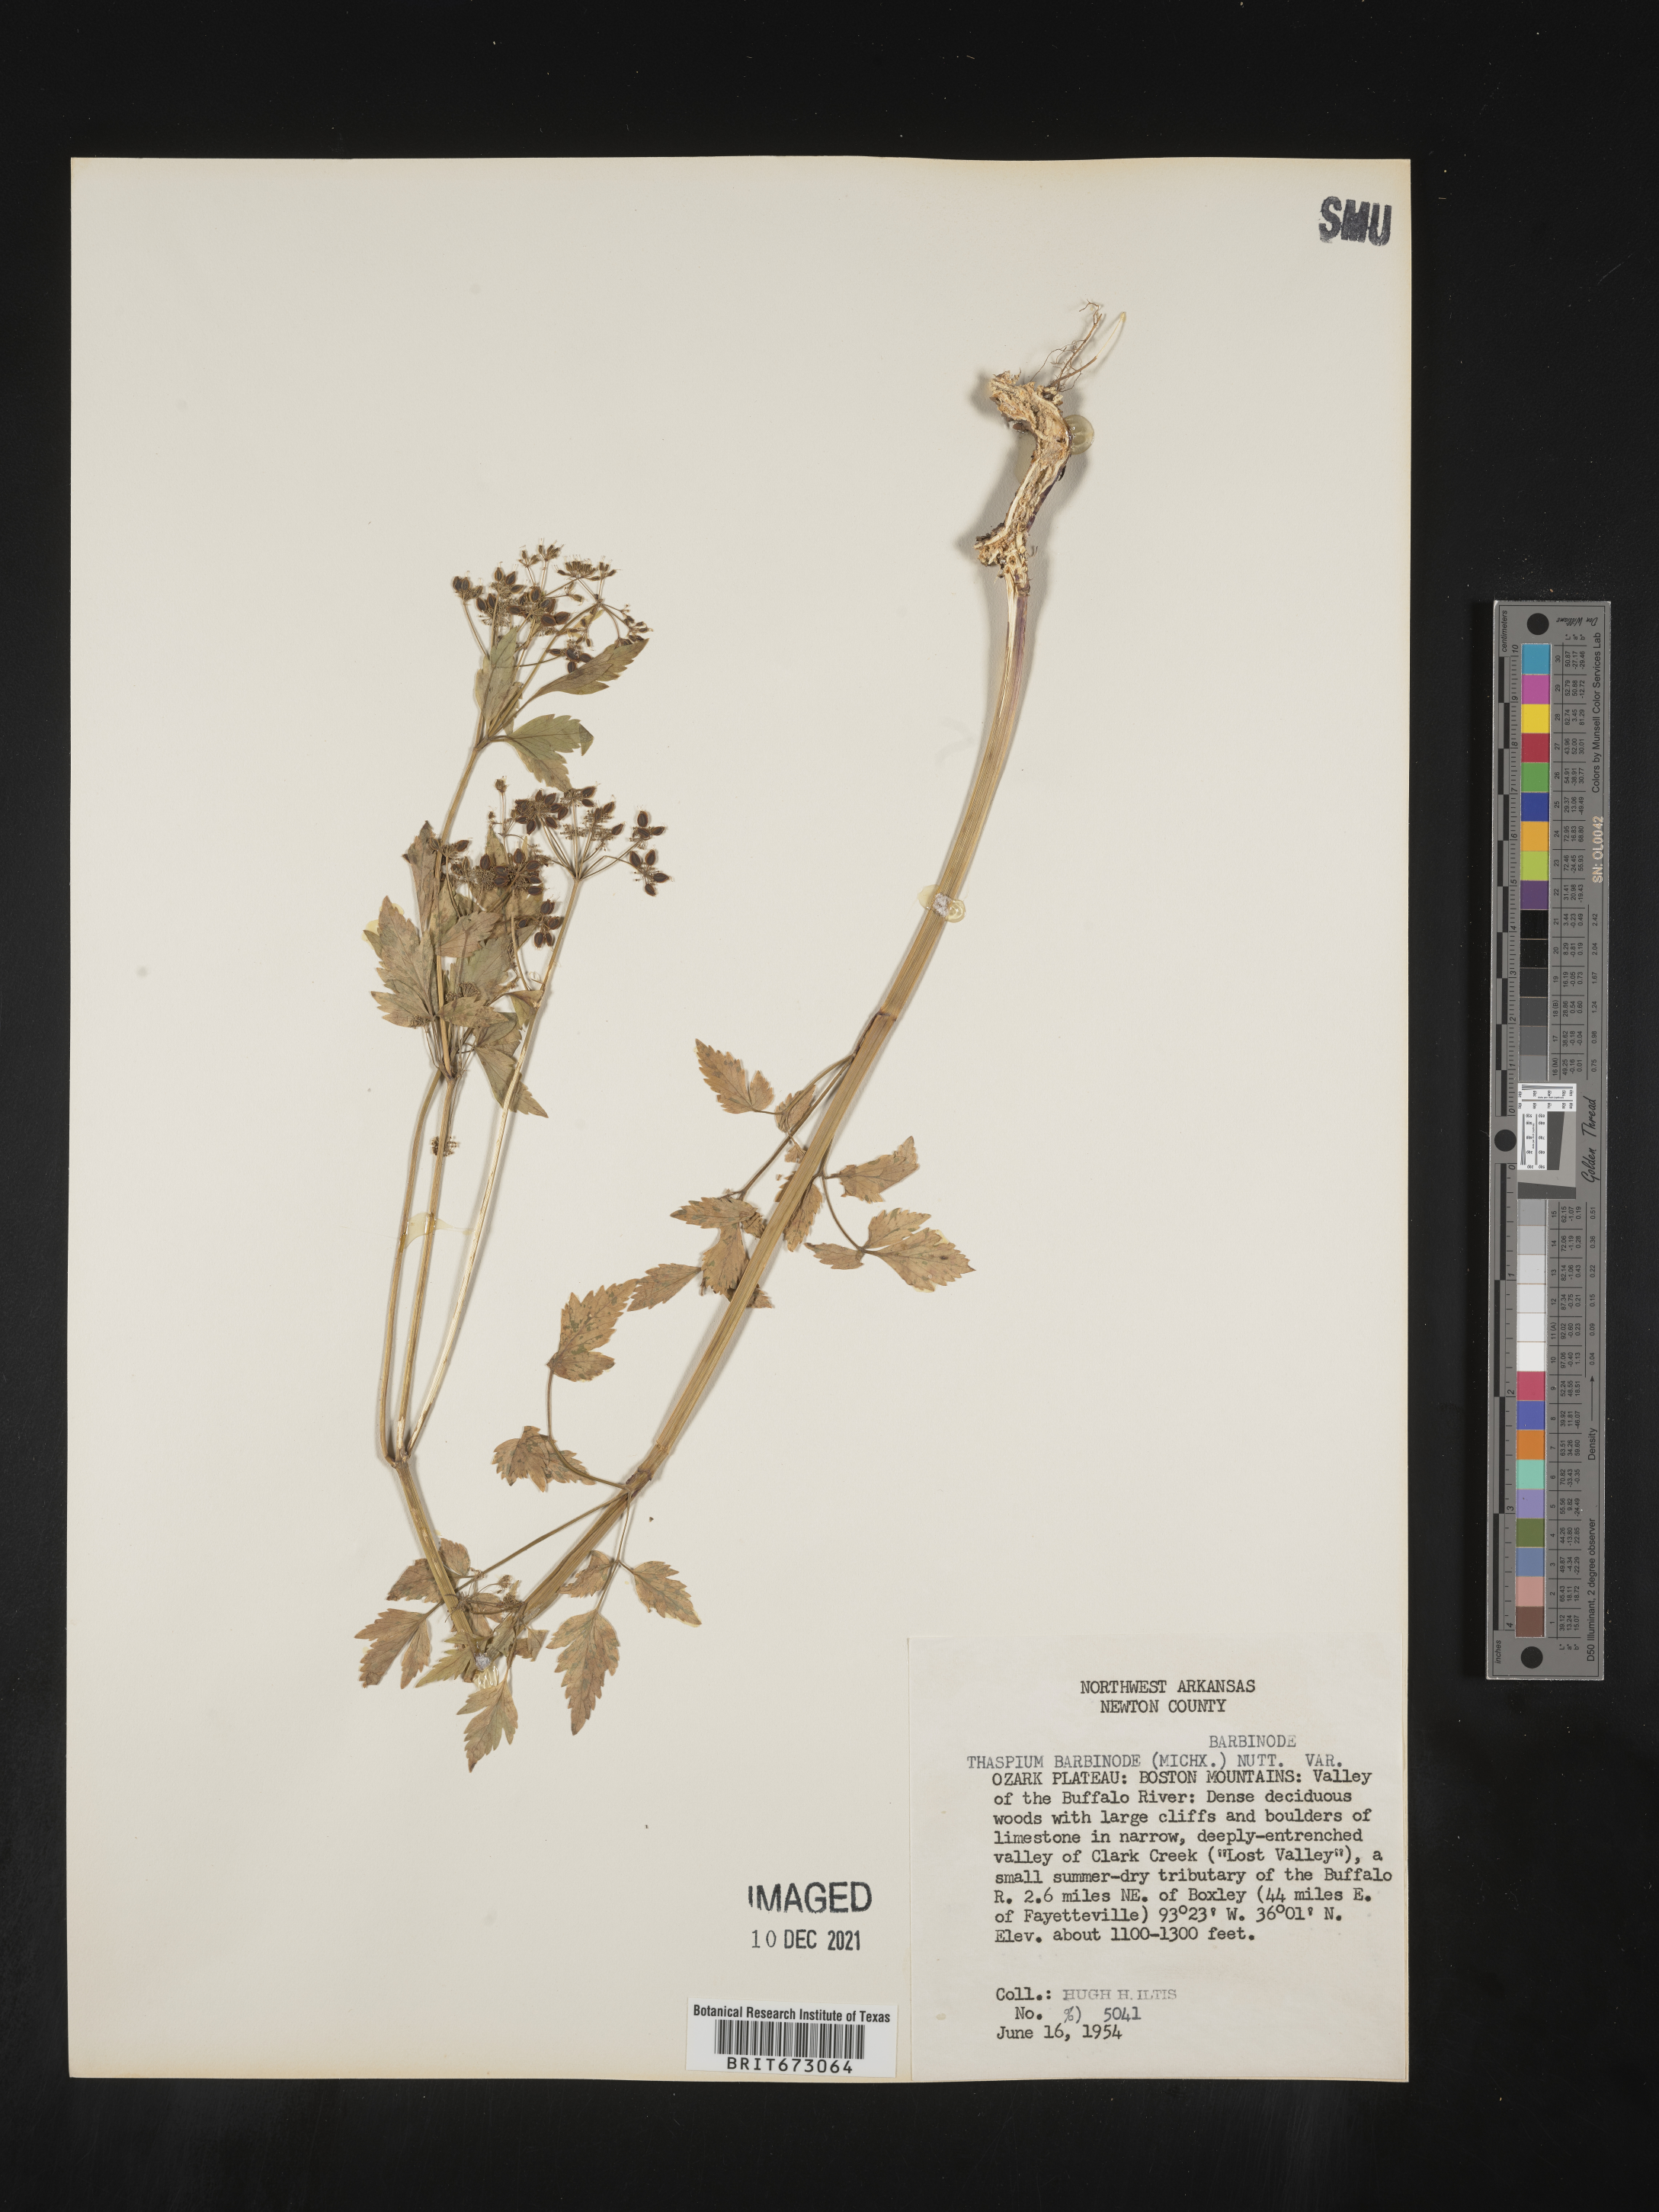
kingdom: Plantae
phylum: Tracheophyta
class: Magnoliopsida
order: Apiales
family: Apiaceae
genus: Thaspium
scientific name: Thaspium barbinode
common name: Bearded meadow-parsnip
